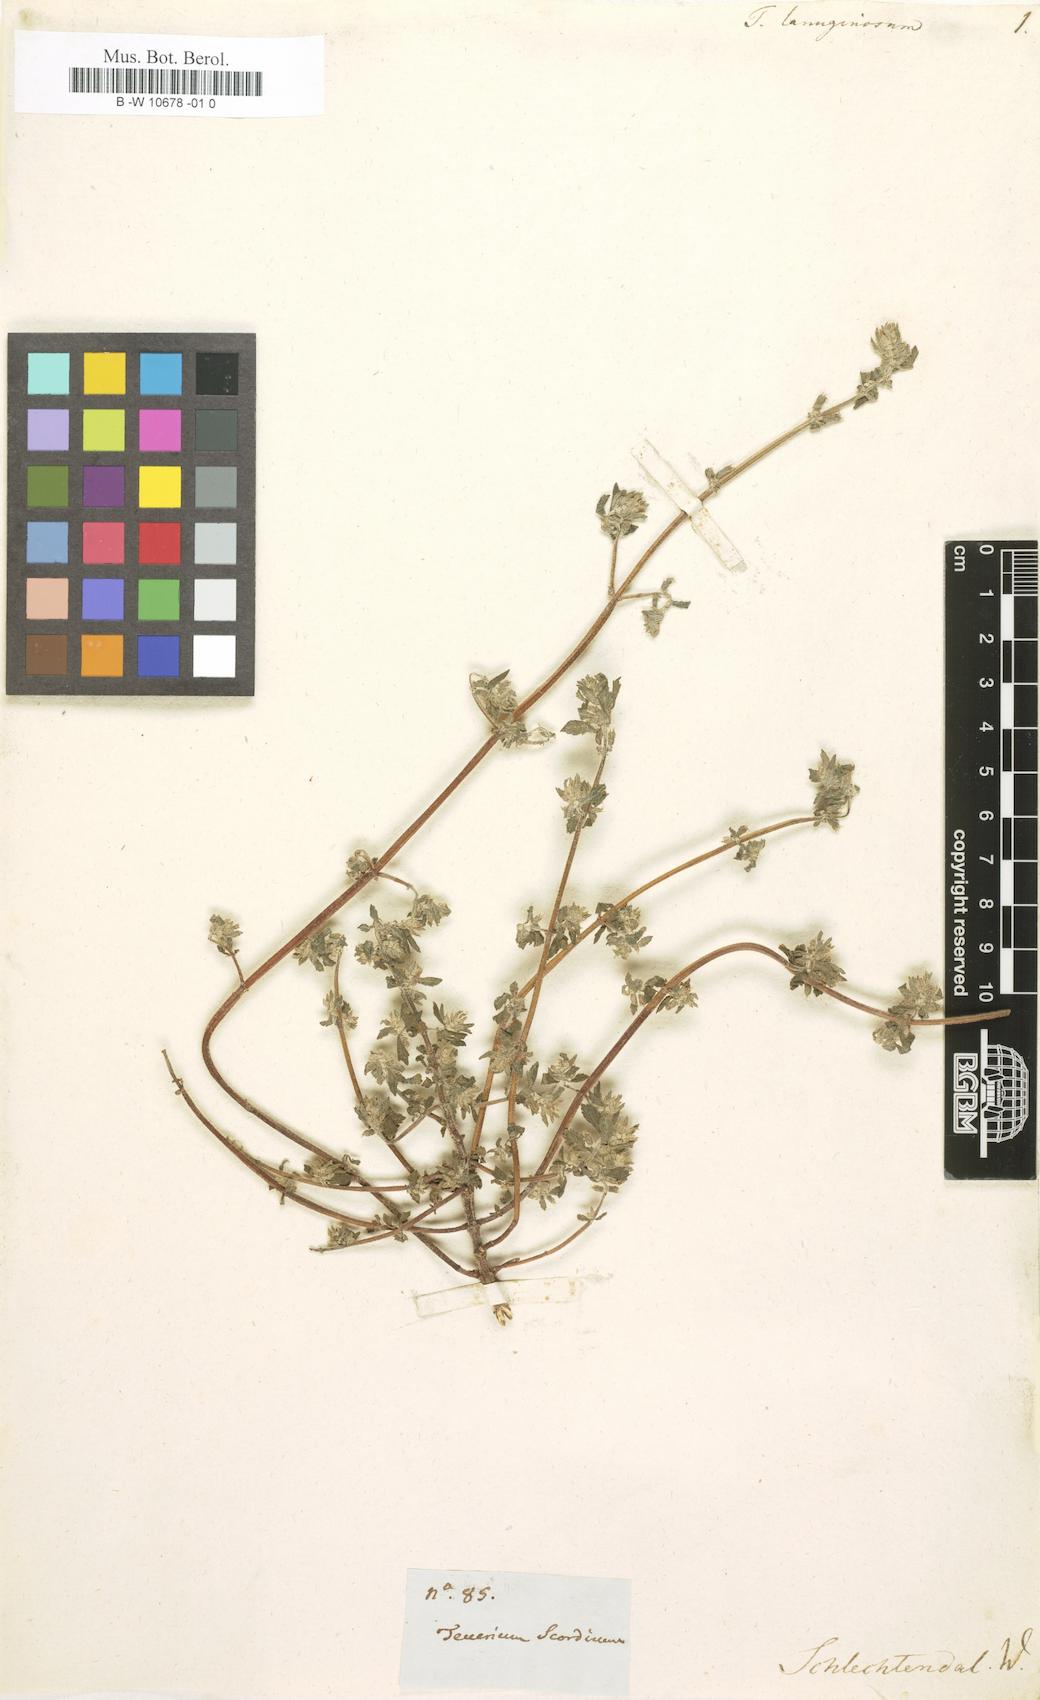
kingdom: Plantae
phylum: Tracheophyta
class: Magnoliopsida
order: Lamiales
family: Lamiaceae
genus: Teucrium
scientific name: Teucrium scordium
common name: Water germander
